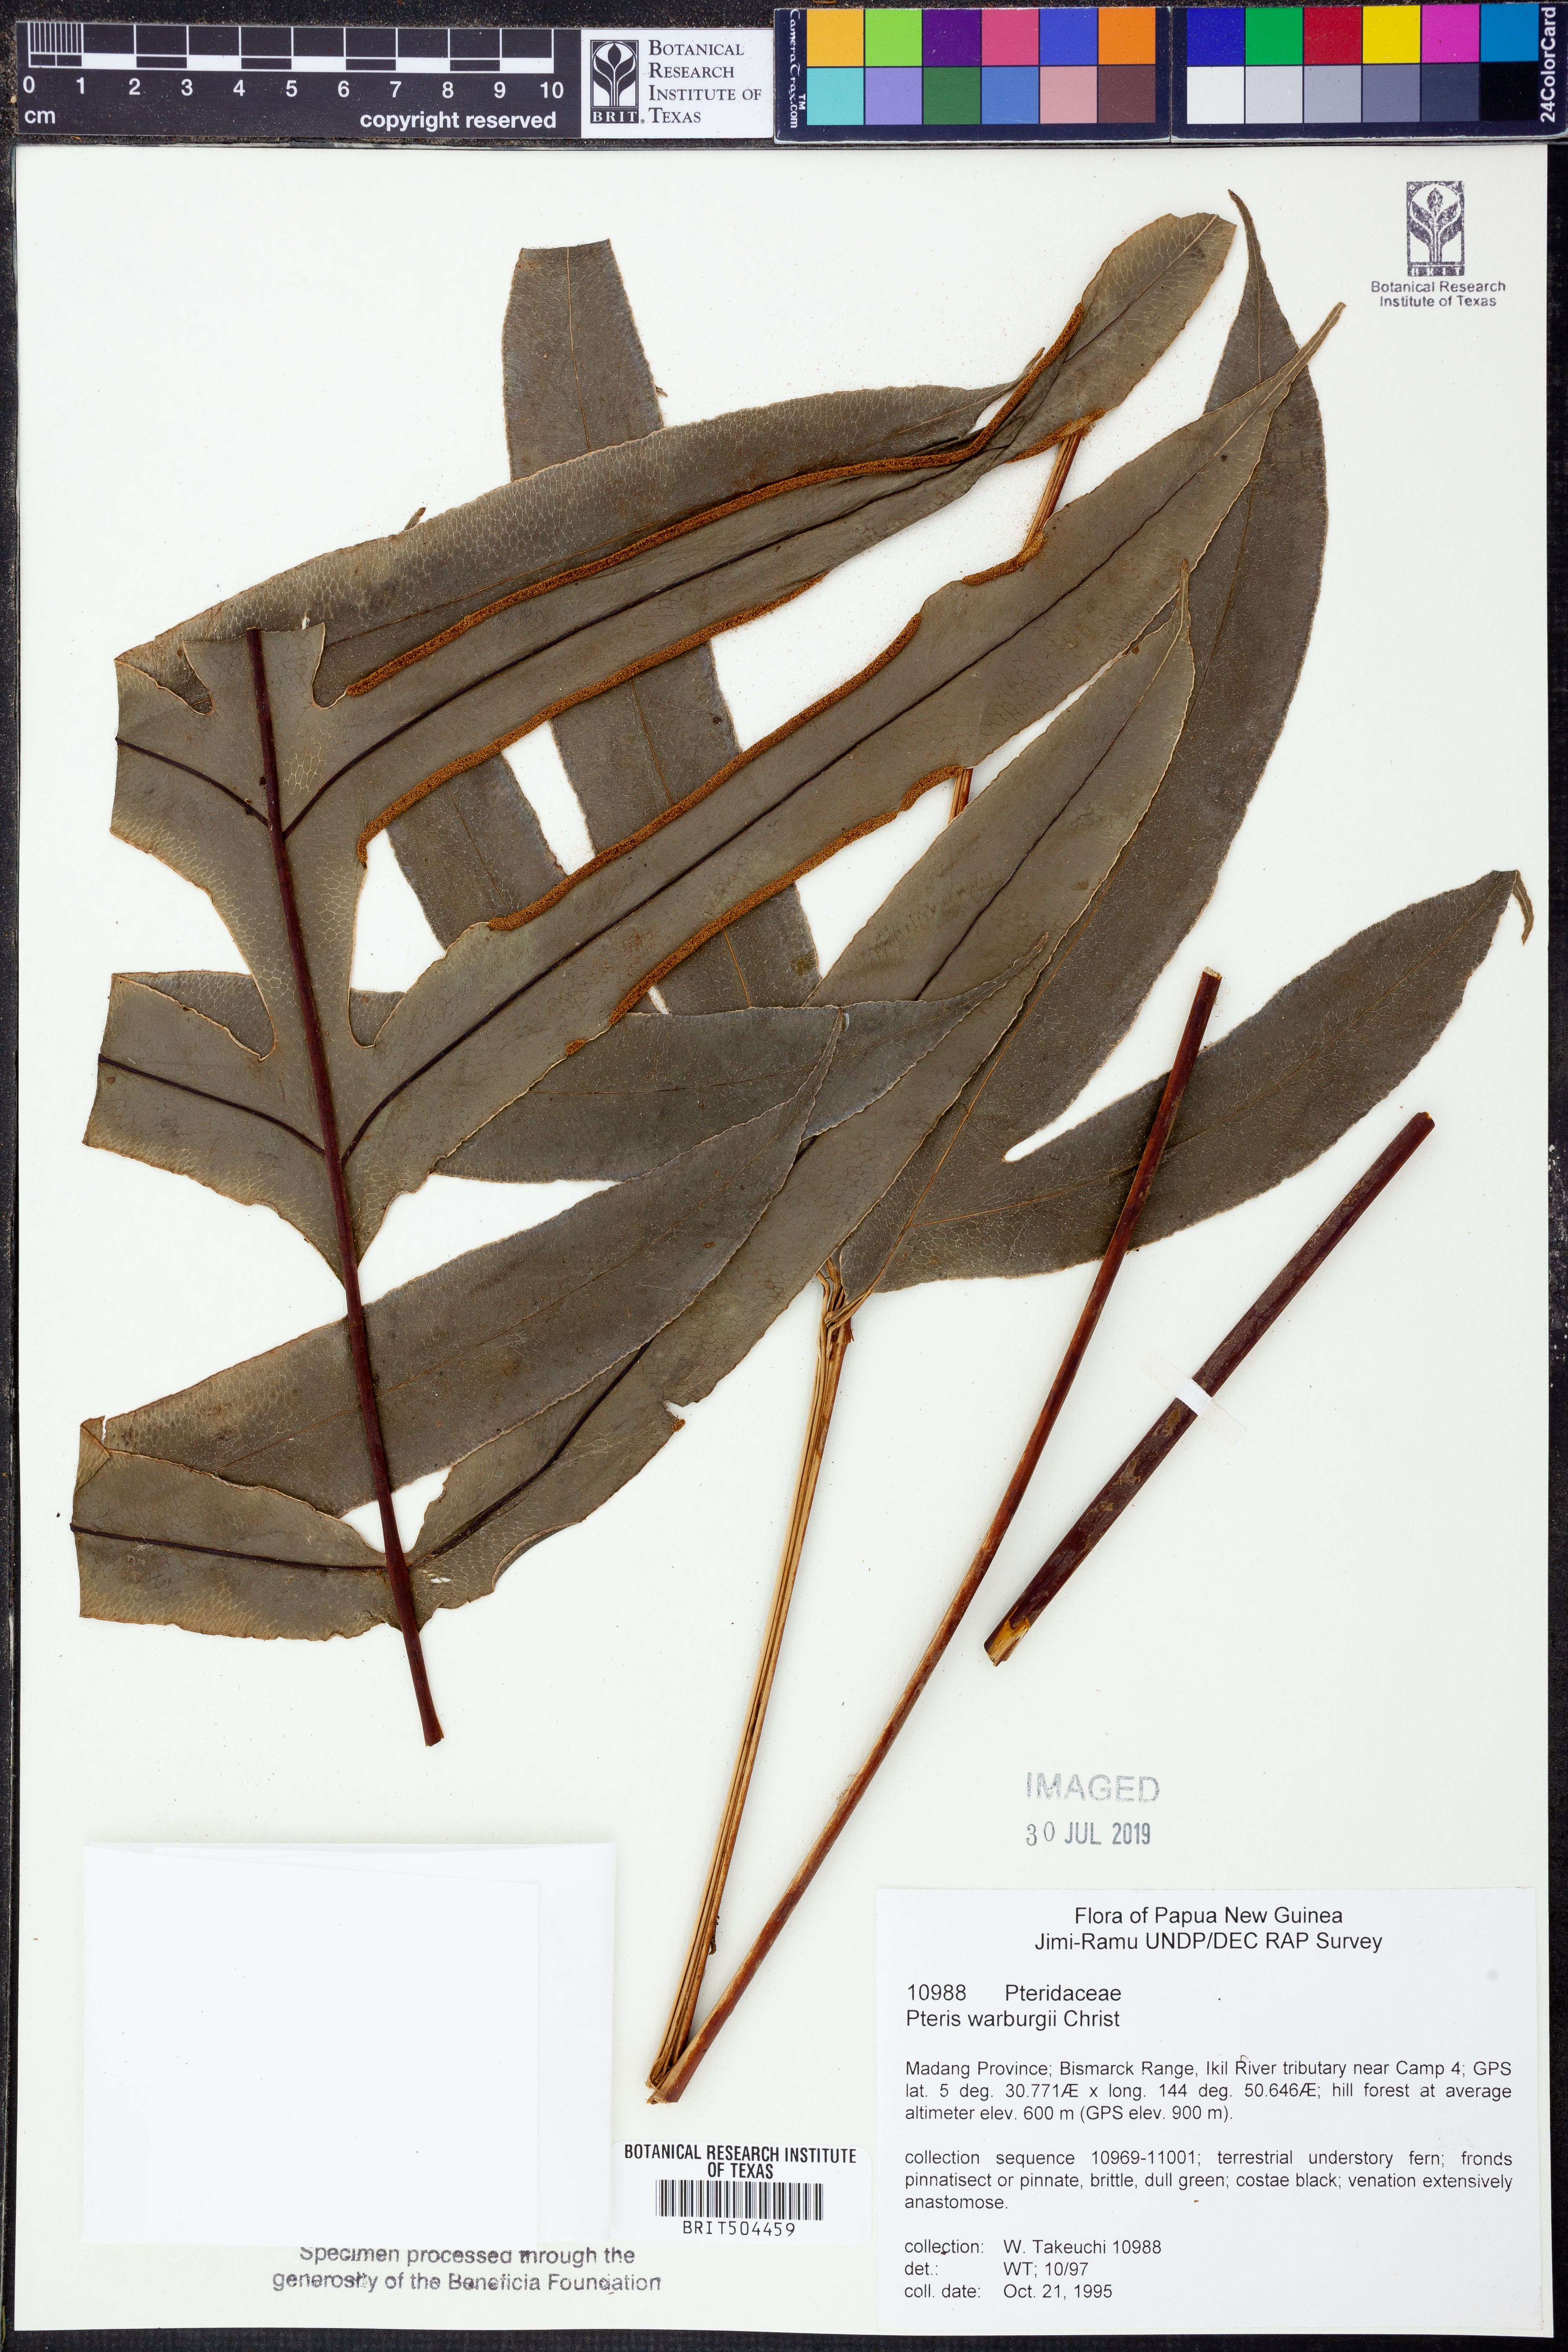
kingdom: Plantae
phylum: Tracheophyta
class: Polypodiopsida
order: Polypodiales
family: Pteridaceae
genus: Pteris
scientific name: Pteris warburgii
